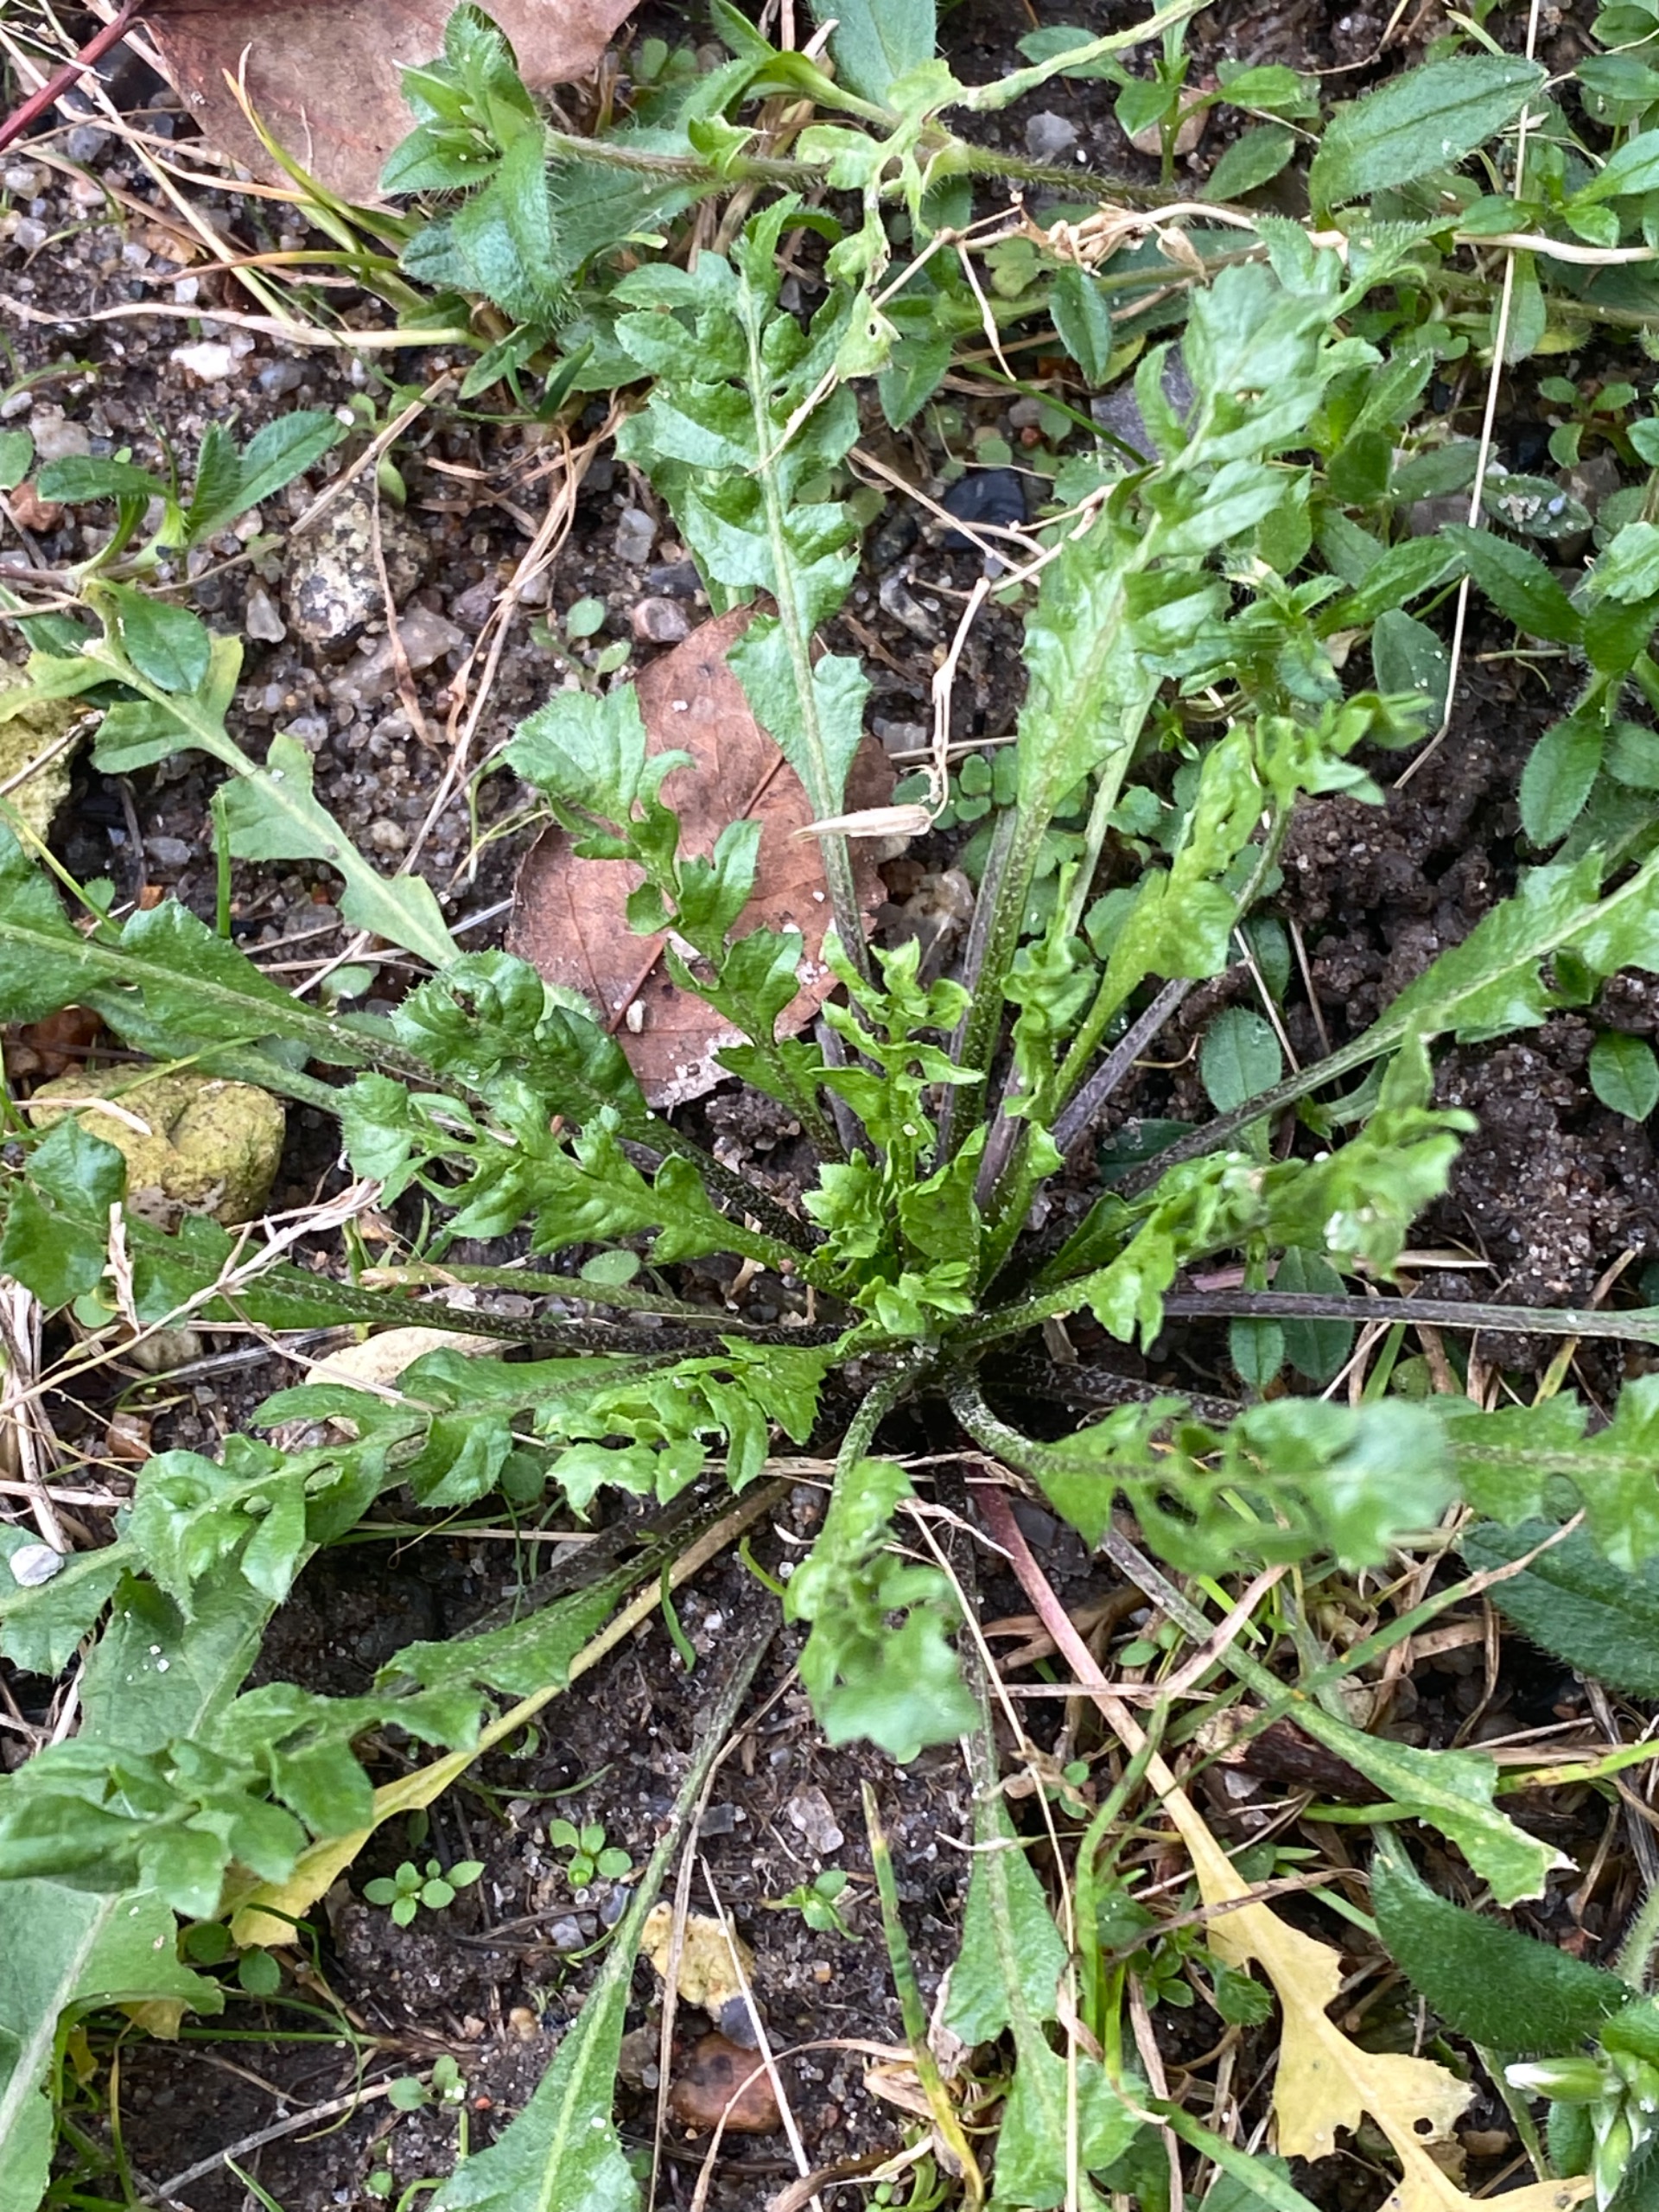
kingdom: Plantae
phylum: Tracheophyta
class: Magnoliopsida
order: Brassicales
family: Brassicaceae
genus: Capsella
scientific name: Capsella bursa-pastoris
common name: Hyrdetaske
